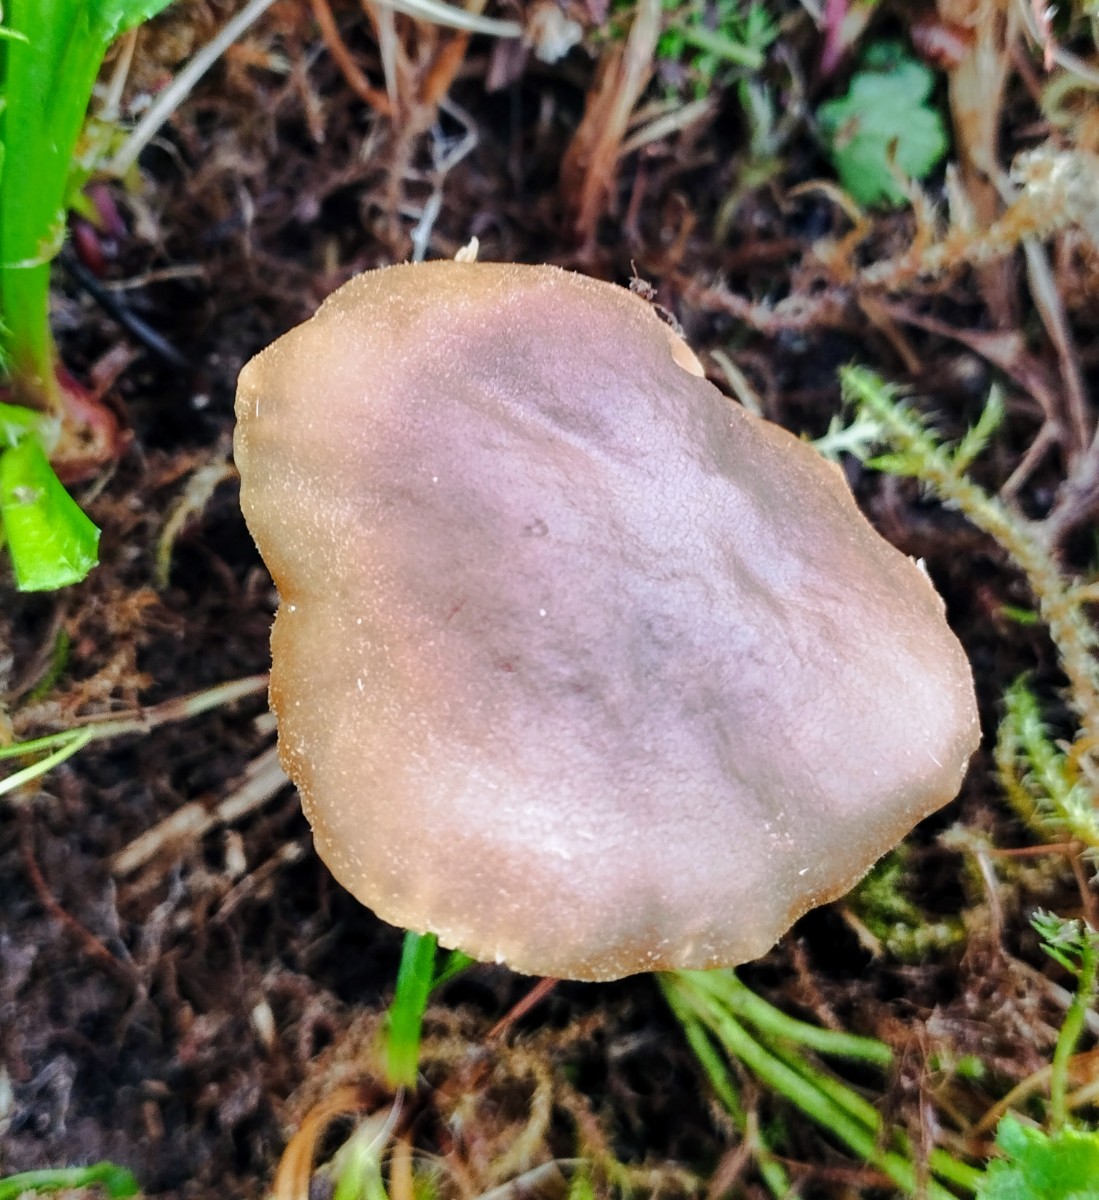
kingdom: Fungi
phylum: Basidiomycota
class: Agaricomycetes
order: Agaricales
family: Clavariaceae
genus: Camarophyllopsis
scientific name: Camarophyllopsis schulzeri
